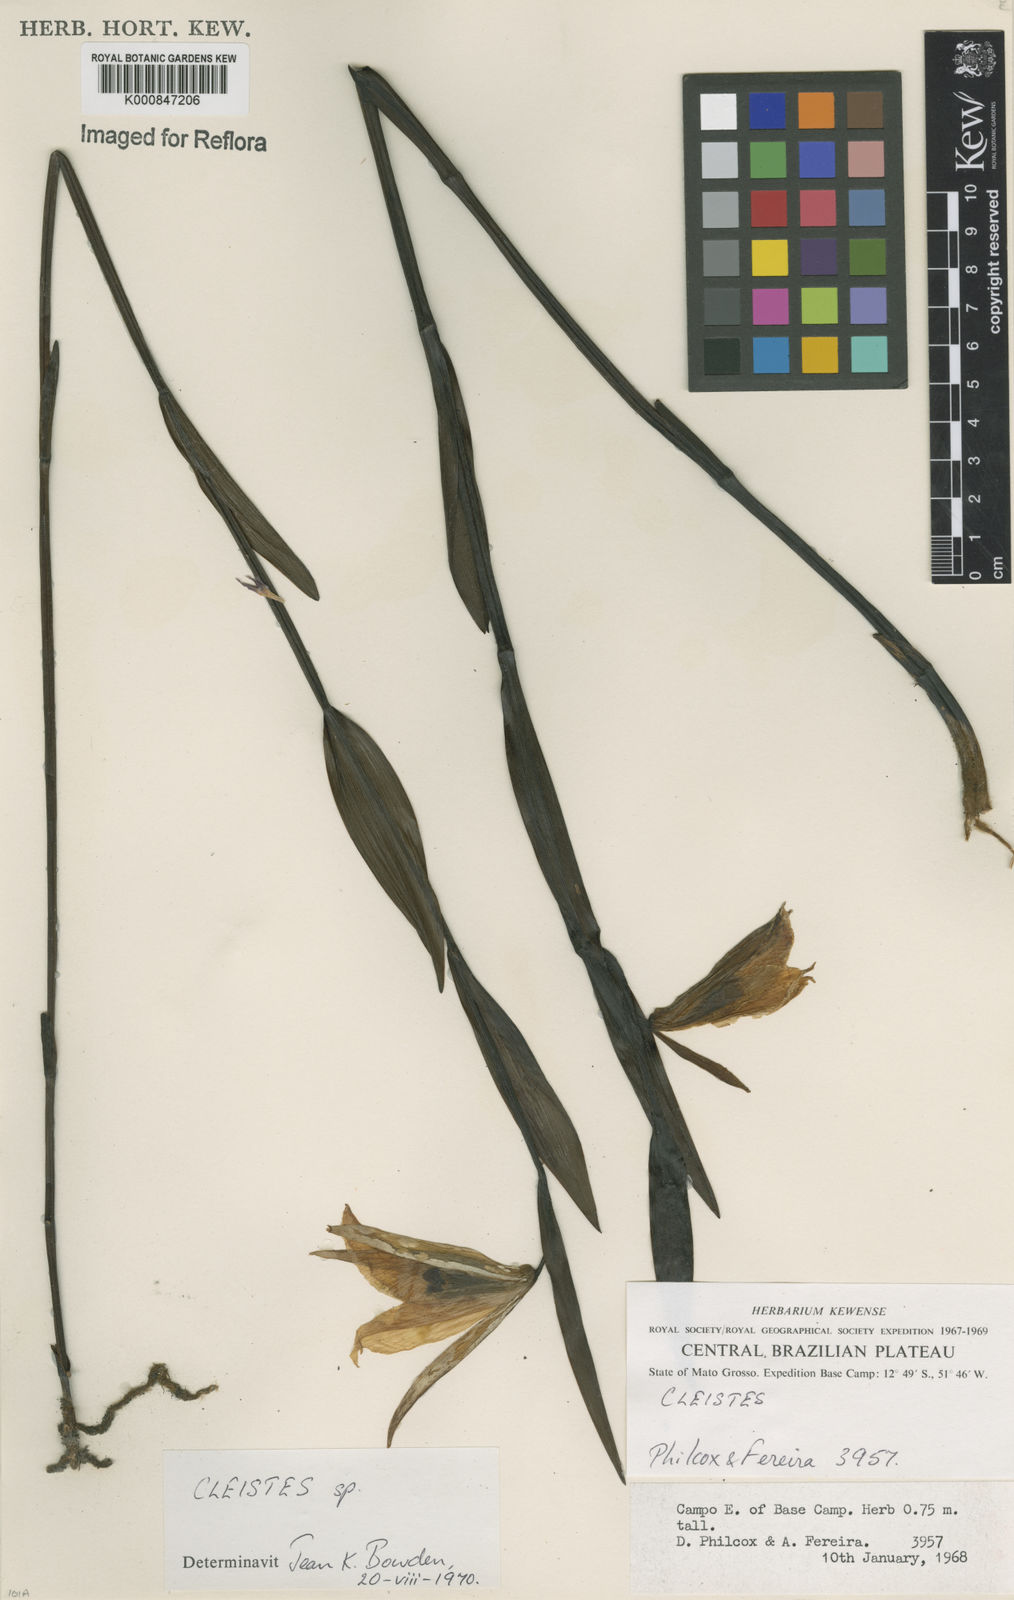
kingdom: Plantae
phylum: Tracheophyta
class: Liliopsida
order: Asparagales
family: Orchidaceae
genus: Cleistes
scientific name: Cleistes
